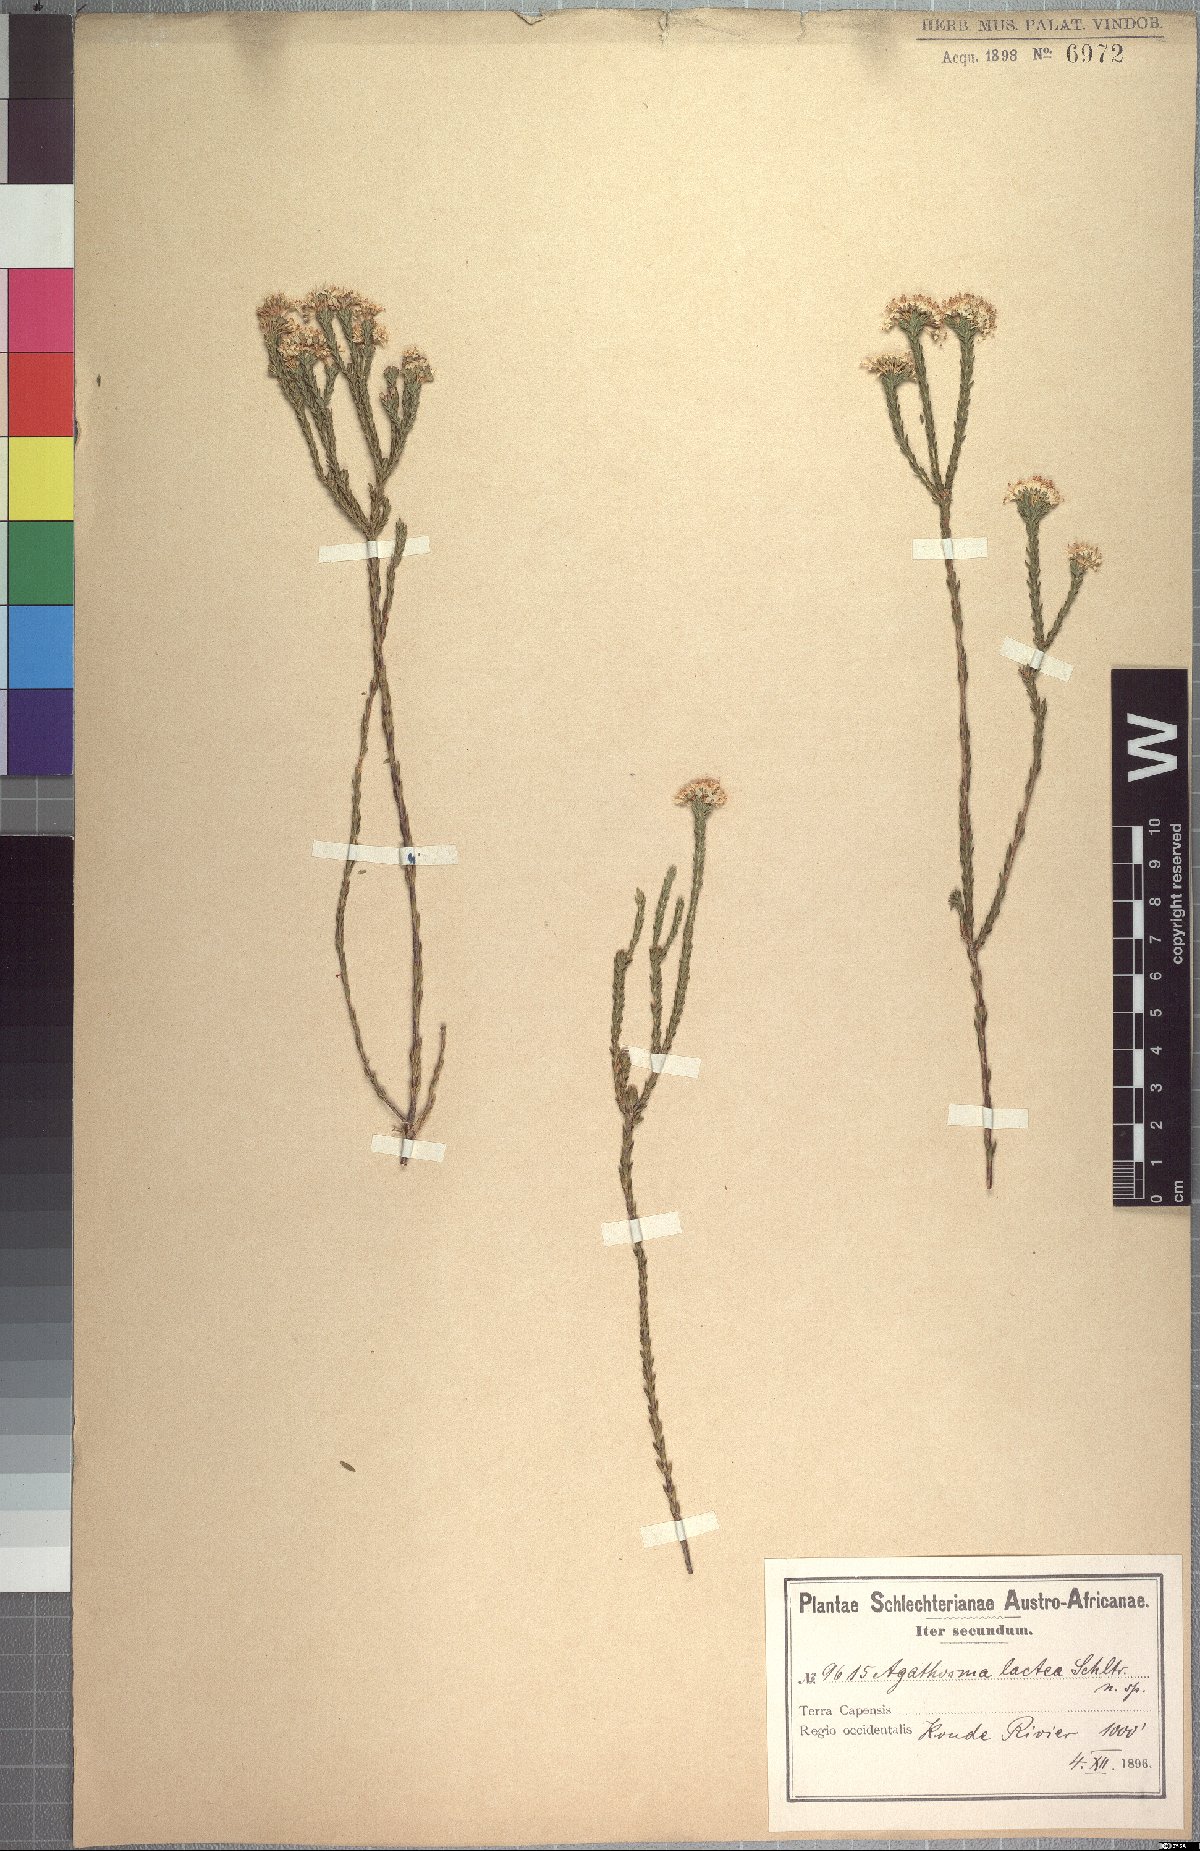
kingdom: Plantae
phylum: Tracheophyta
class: Magnoliopsida
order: Sapindales
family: Rutaceae
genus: Agathosma
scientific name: Agathosma capensis
